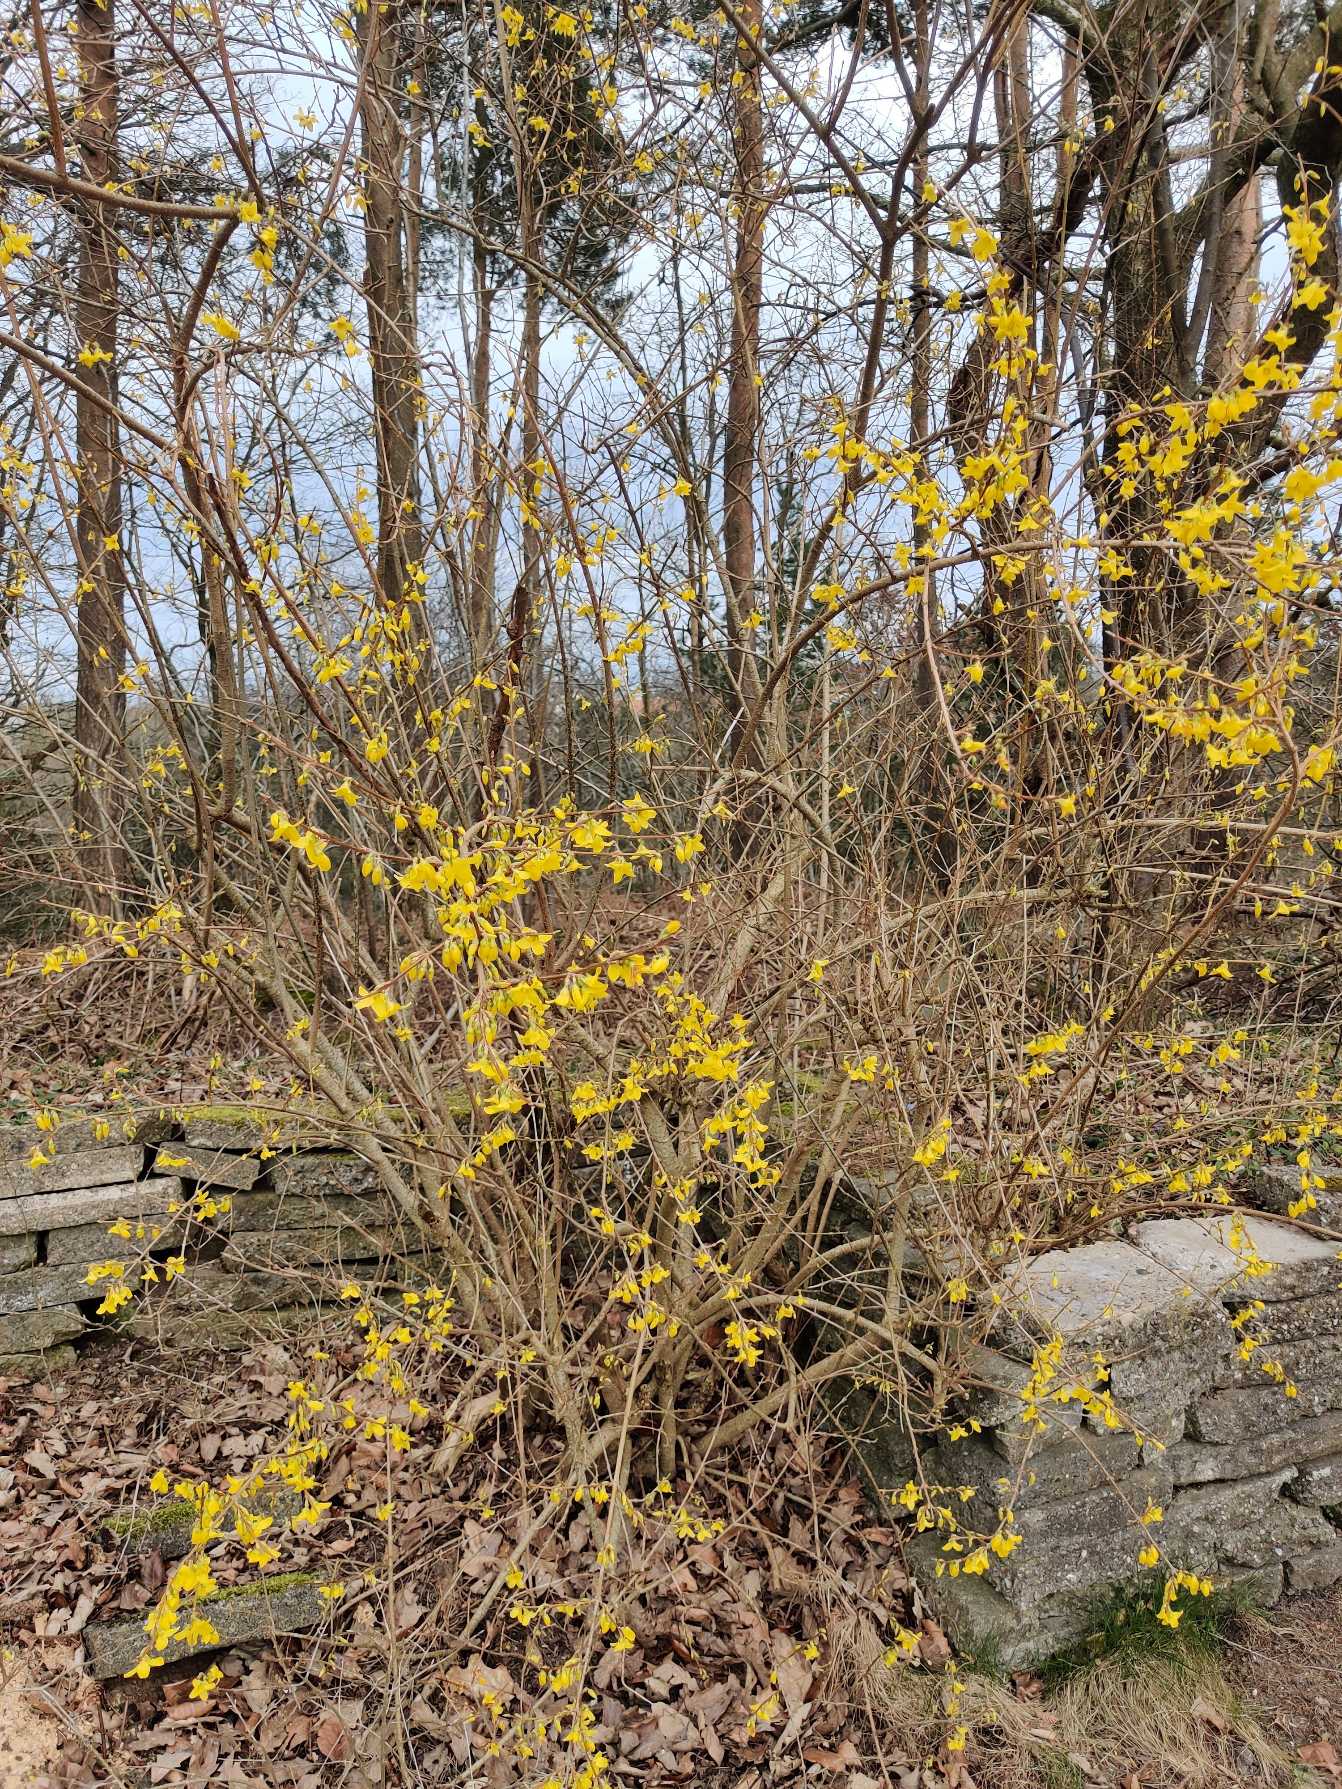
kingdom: Plantae
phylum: Tracheophyta
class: Magnoliopsida
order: Lamiales
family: Oleaceae
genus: Forsythia
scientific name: Forsythia intermedia
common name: Have-forsythia
